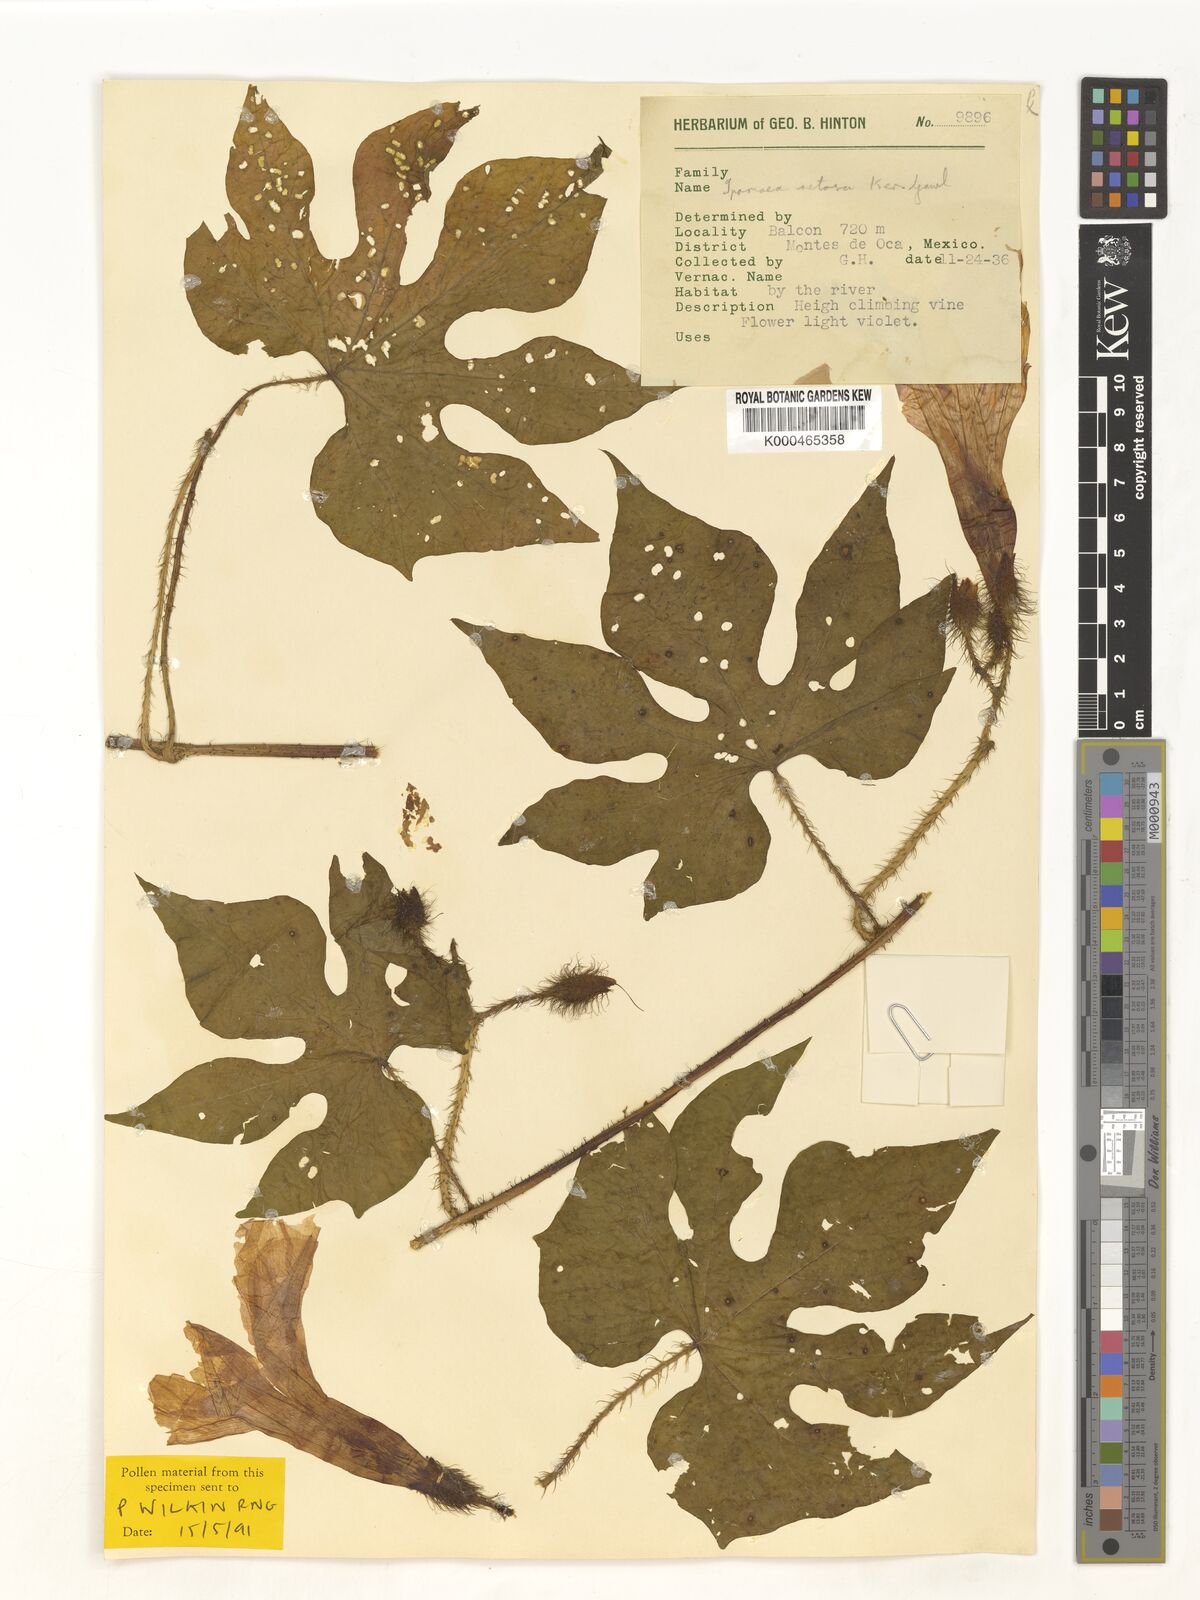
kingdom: Plantae
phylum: Tracheophyta
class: Magnoliopsida
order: Solanales
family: Convolvulaceae
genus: Ipomoea
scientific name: Ipomoea setosa
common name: Brazilian morning-glory
